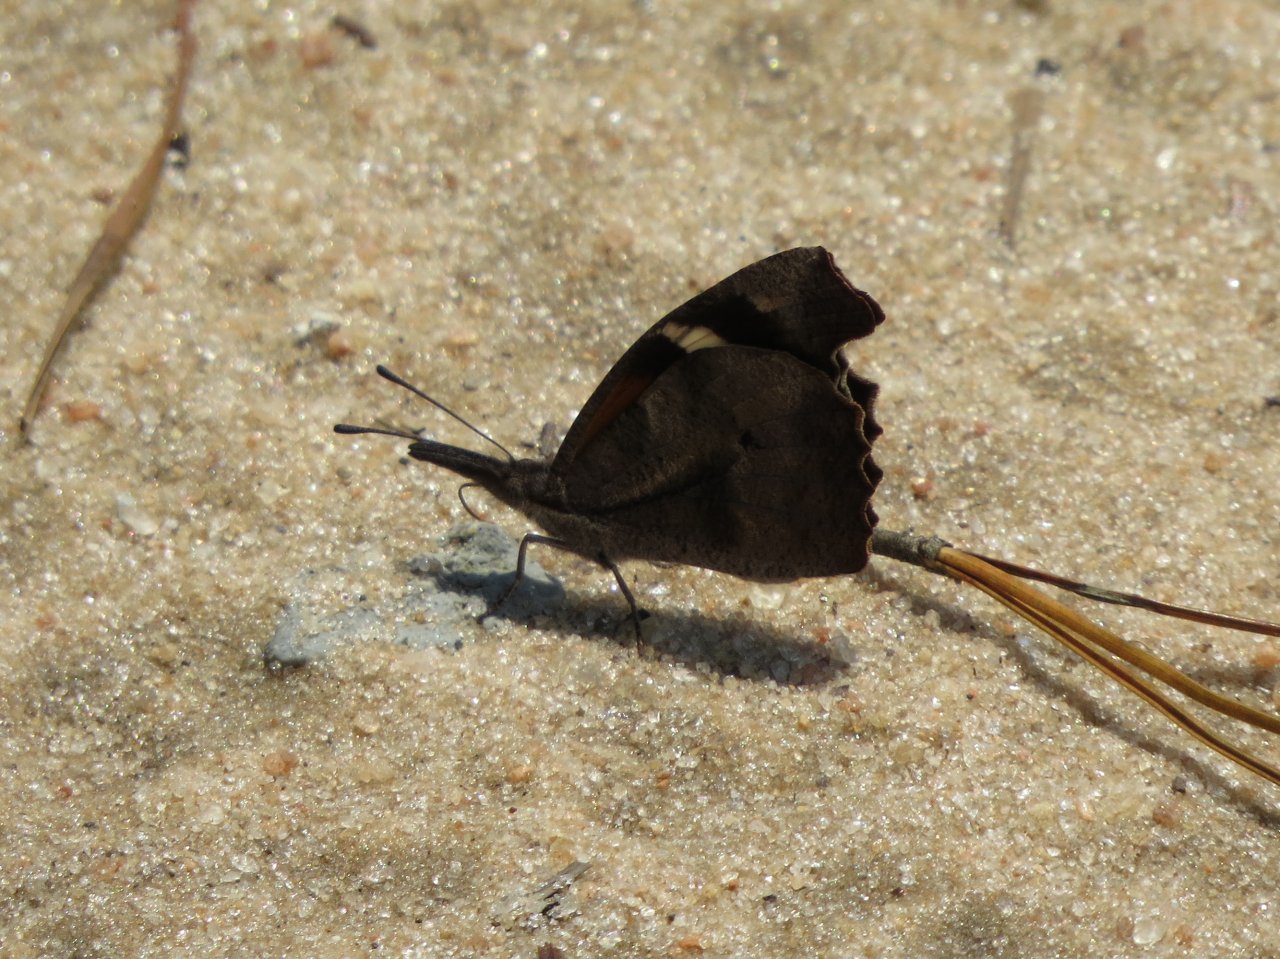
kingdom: Animalia
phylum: Arthropoda
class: Insecta
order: Lepidoptera
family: Nymphalidae
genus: Libytheana
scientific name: Libytheana carinenta
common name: American Snout
